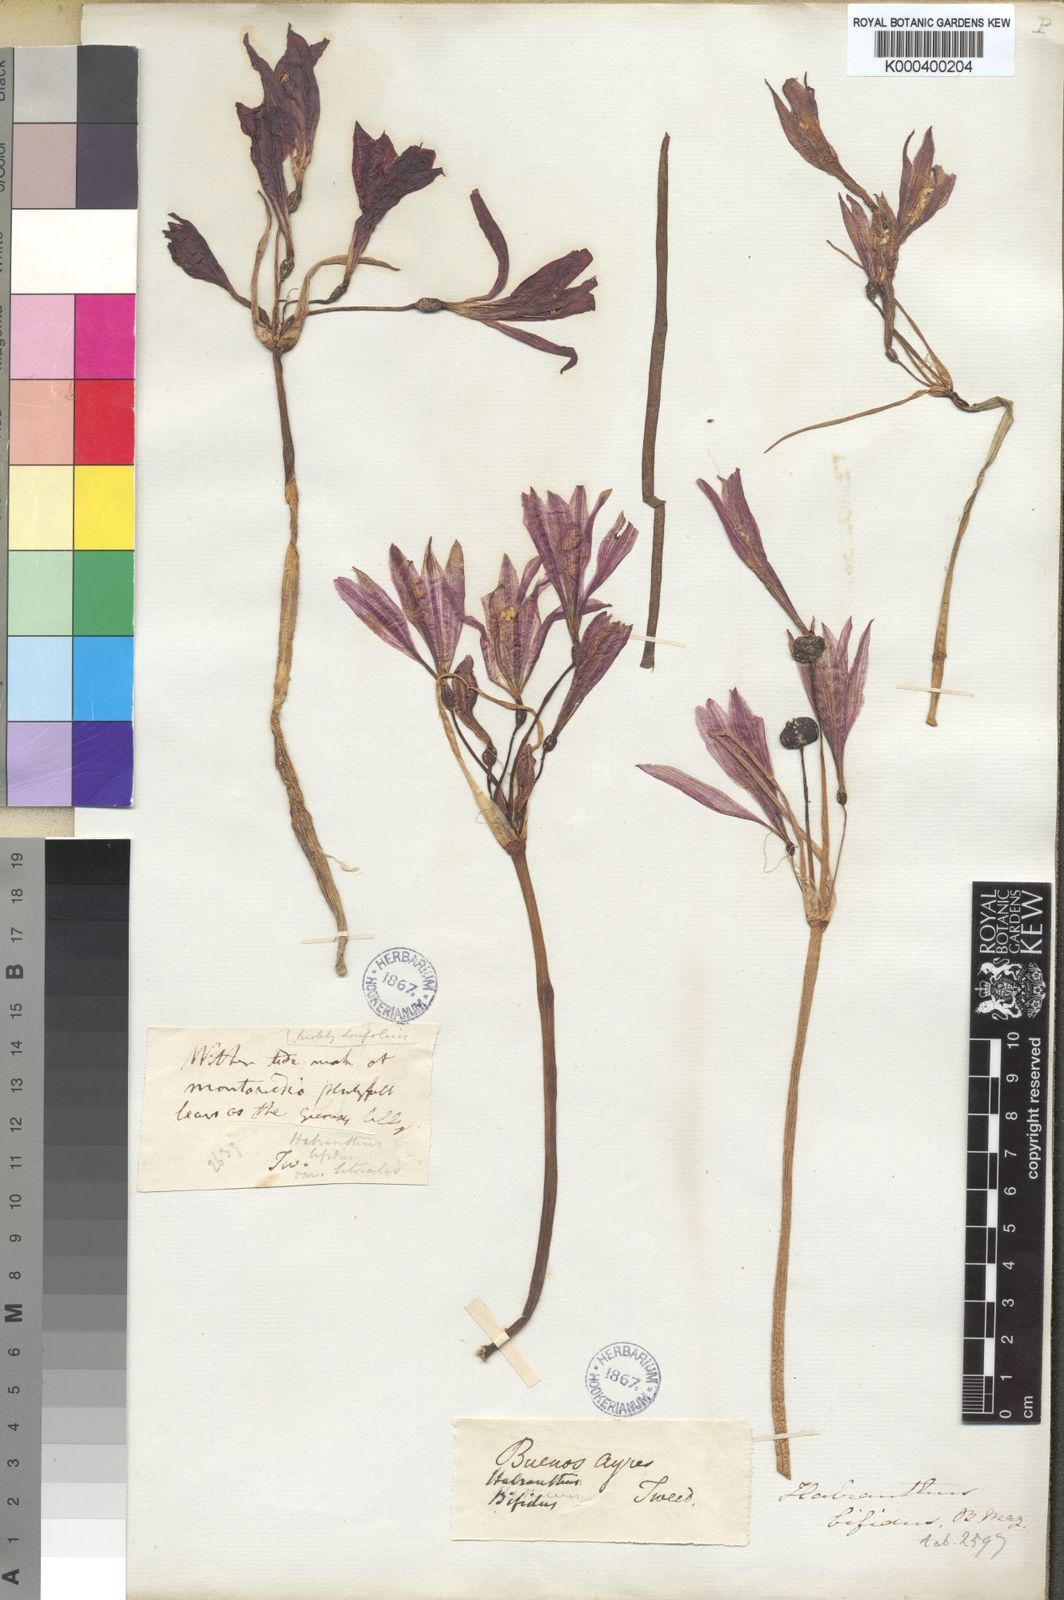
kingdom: Plantae
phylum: Tracheophyta
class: Liliopsida
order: Asparagales
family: Amaryllidaceae
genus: Zephyranthes
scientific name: Zephyranthes bifida
